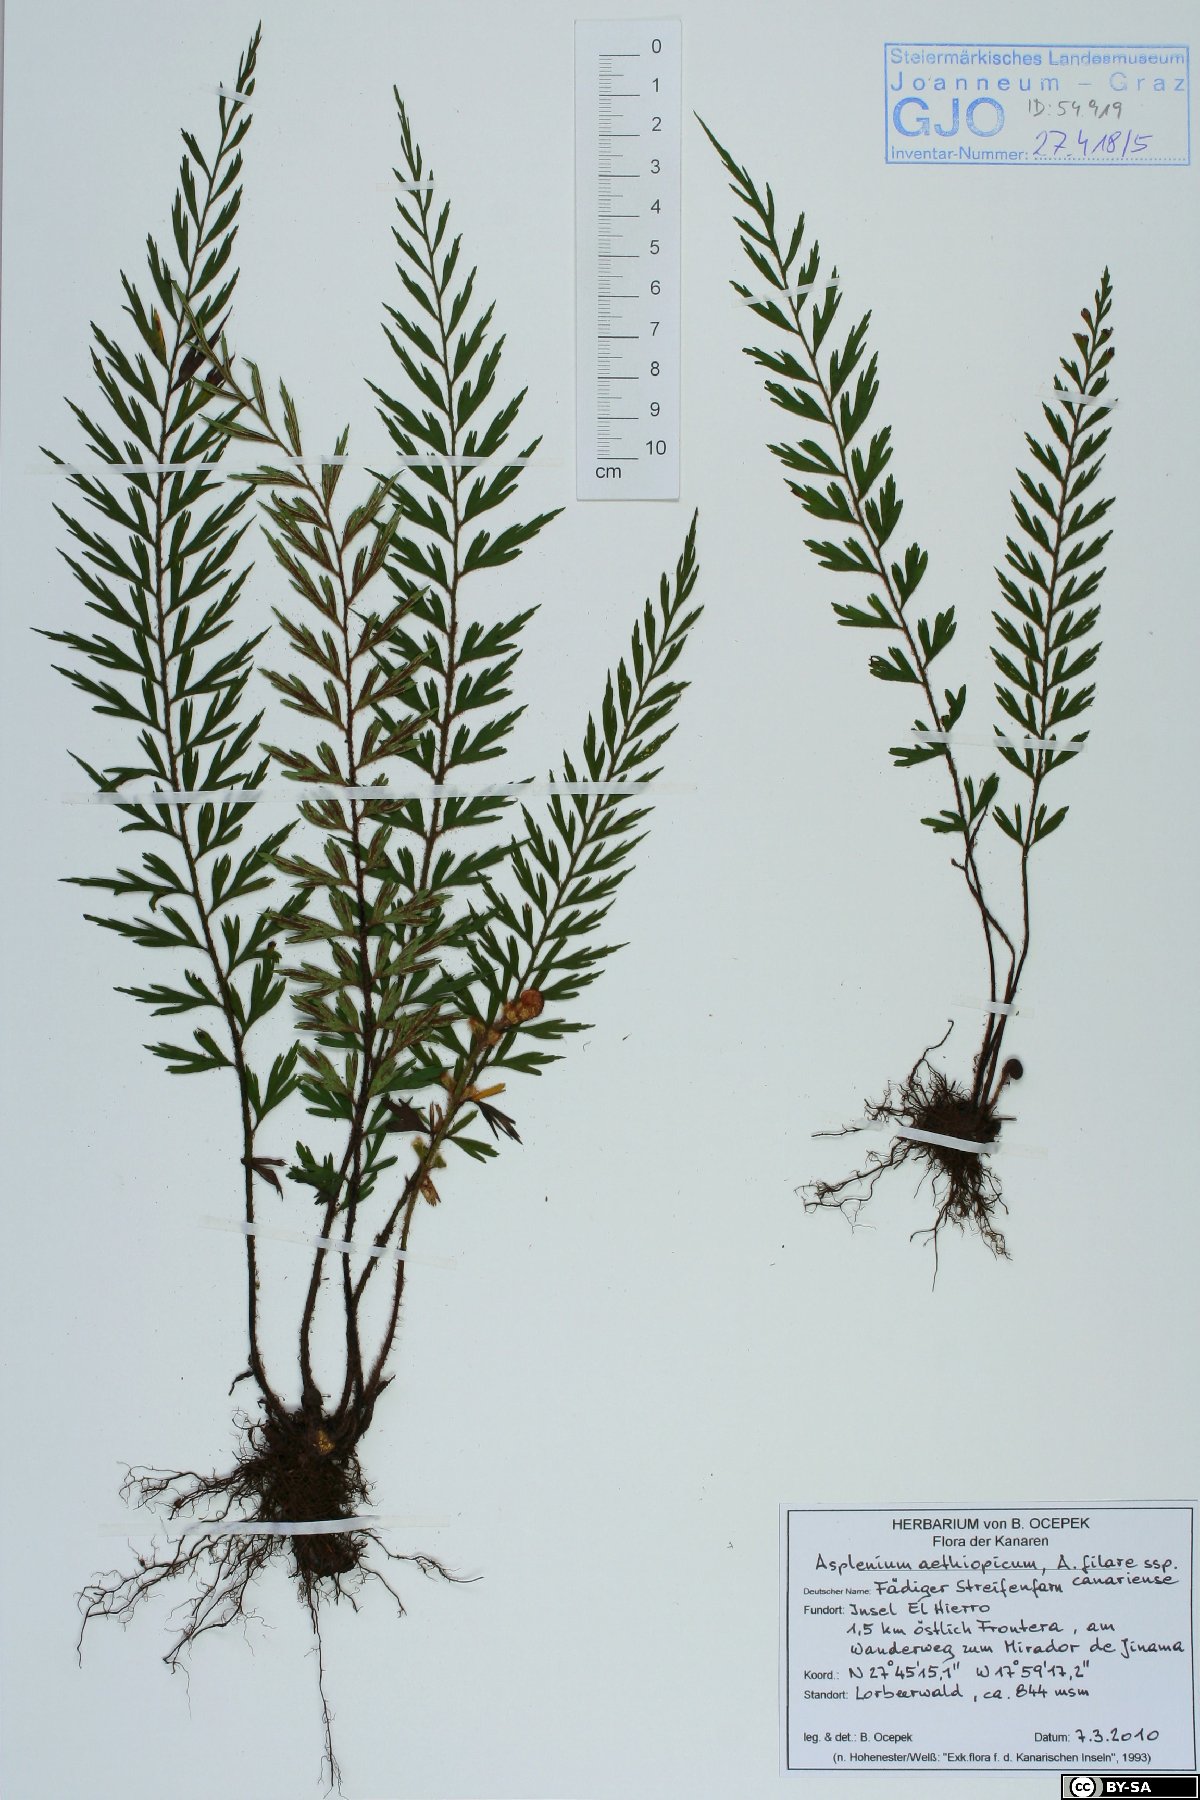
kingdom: Plantae
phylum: Tracheophyta
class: Polypodiopsida
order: Polypodiales
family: Aspleniaceae
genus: Asplenium
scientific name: Asplenium aethiopicum
